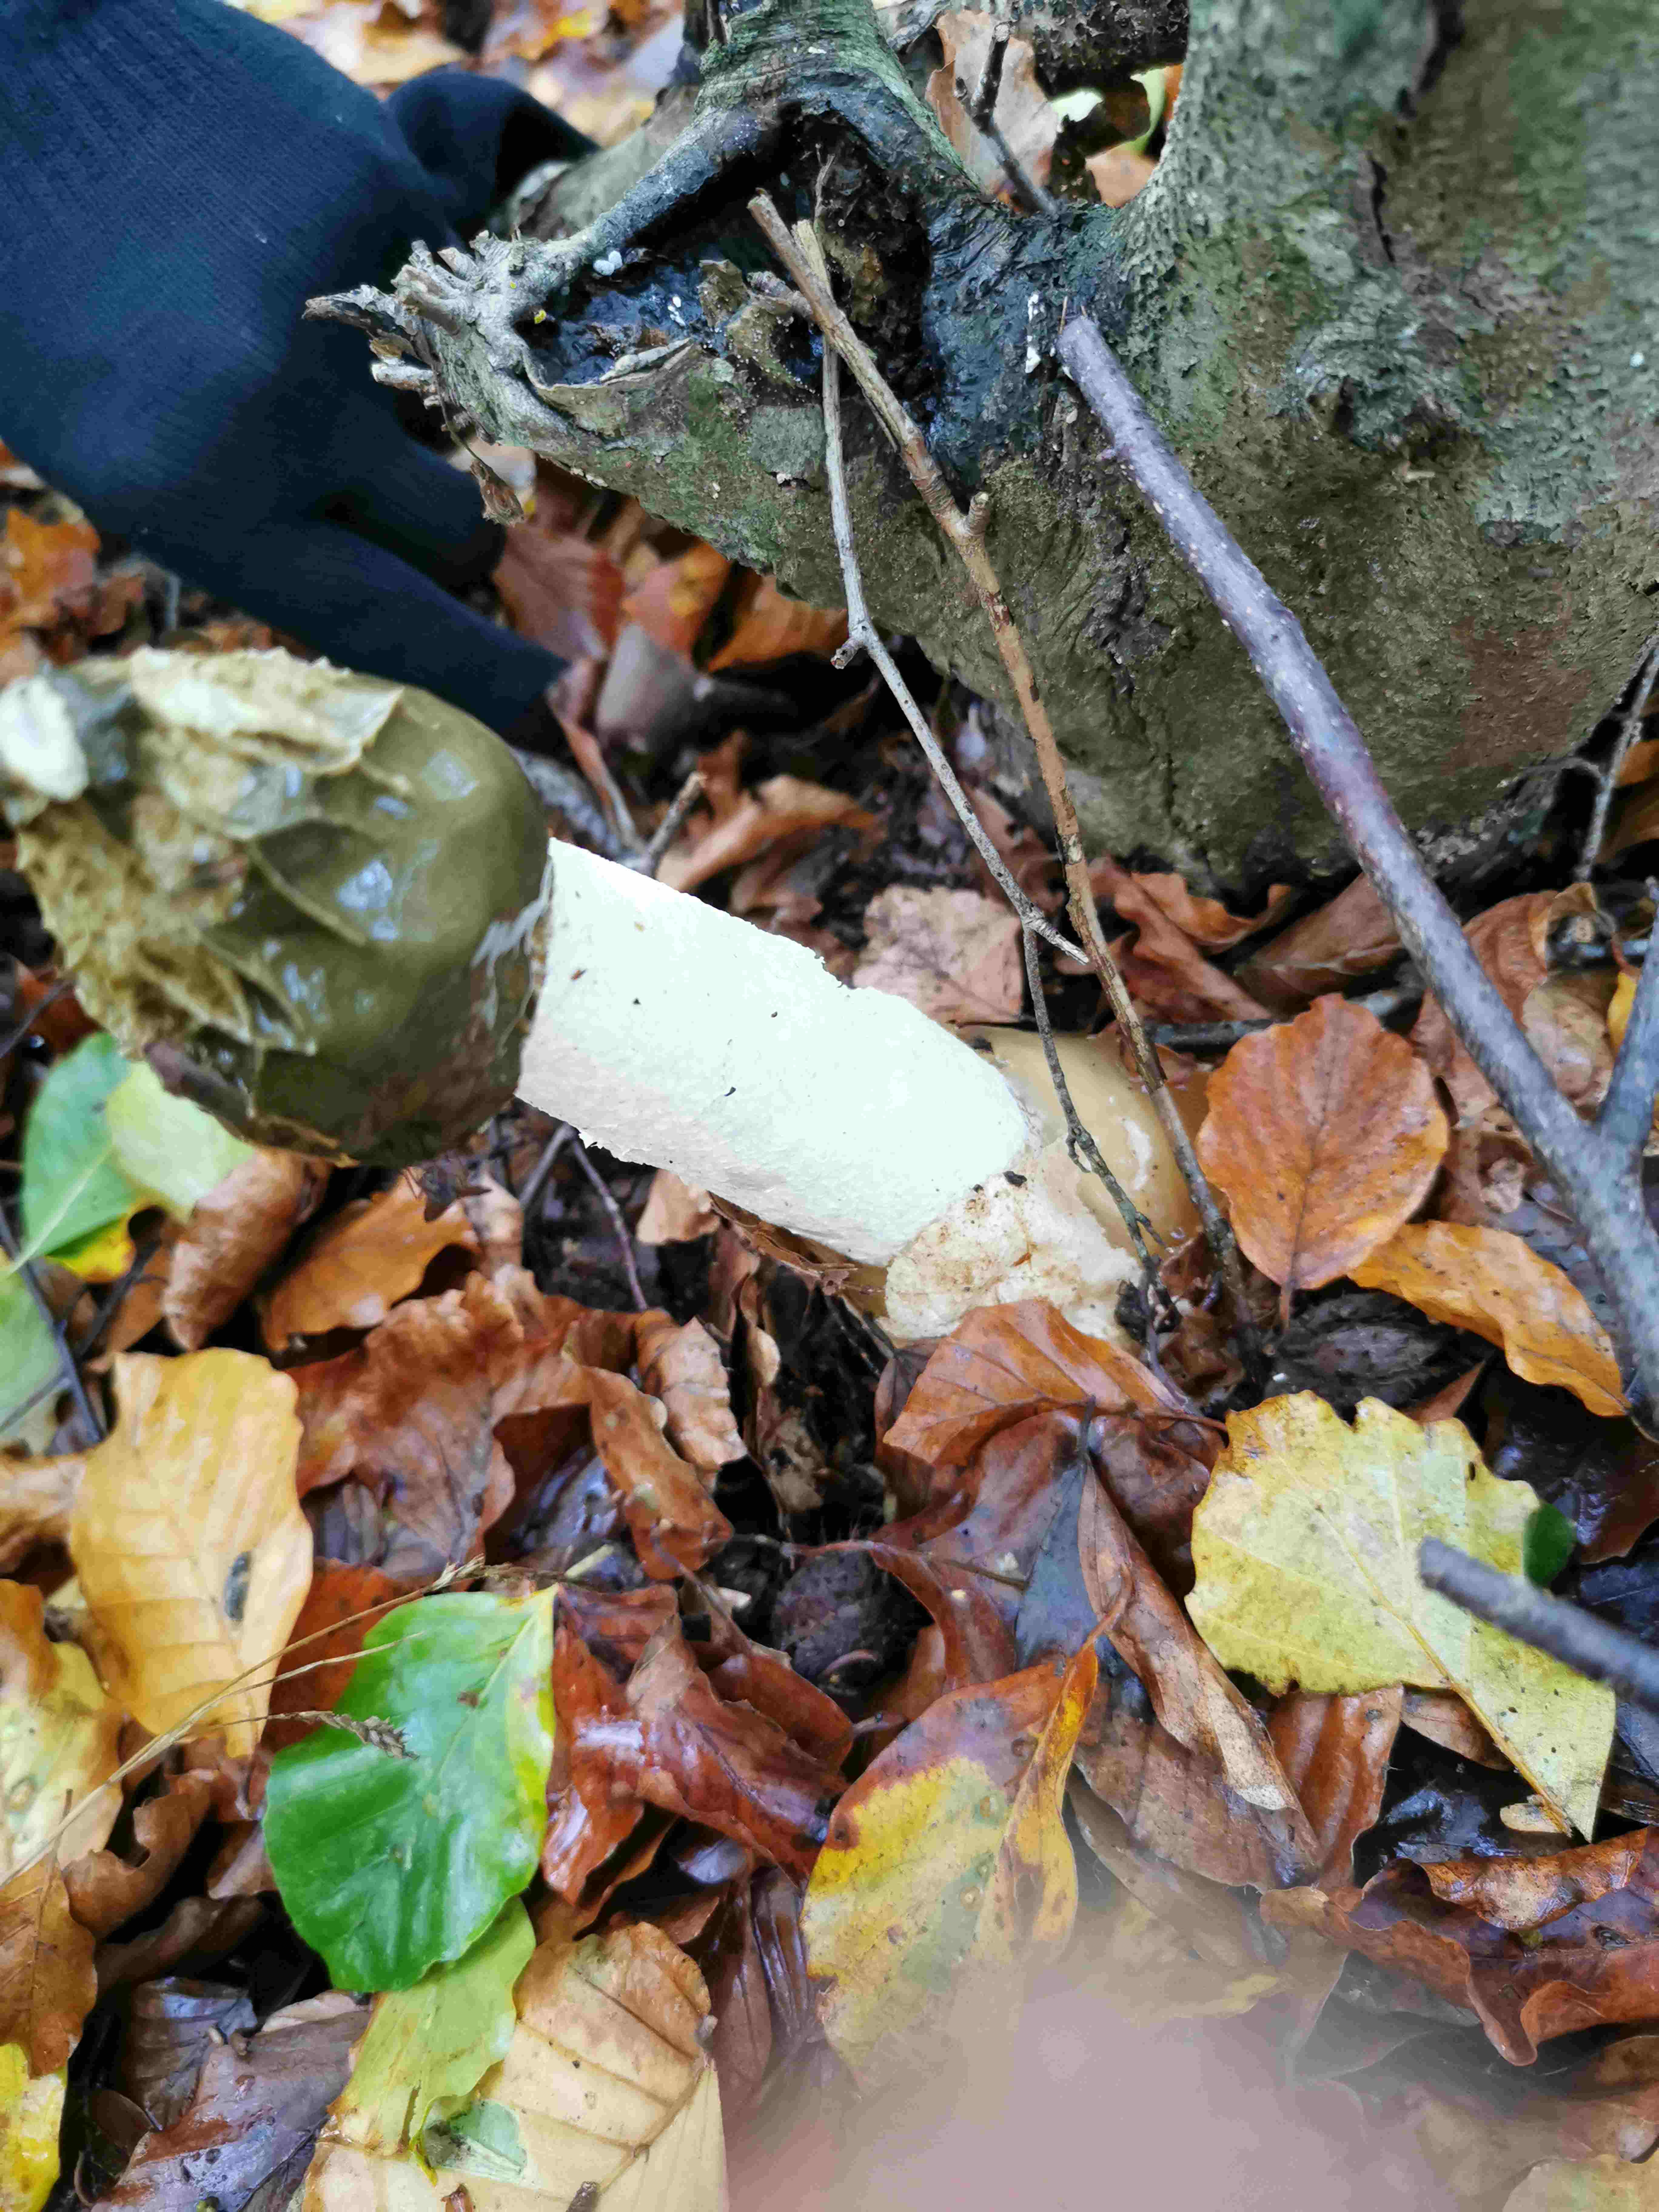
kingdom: Fungi
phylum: Basidiomycota
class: Agaricomycetes
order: Phallales
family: Phallaceae
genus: Phallus
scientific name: Phallus impudicus
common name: almindelig stinksvamp
